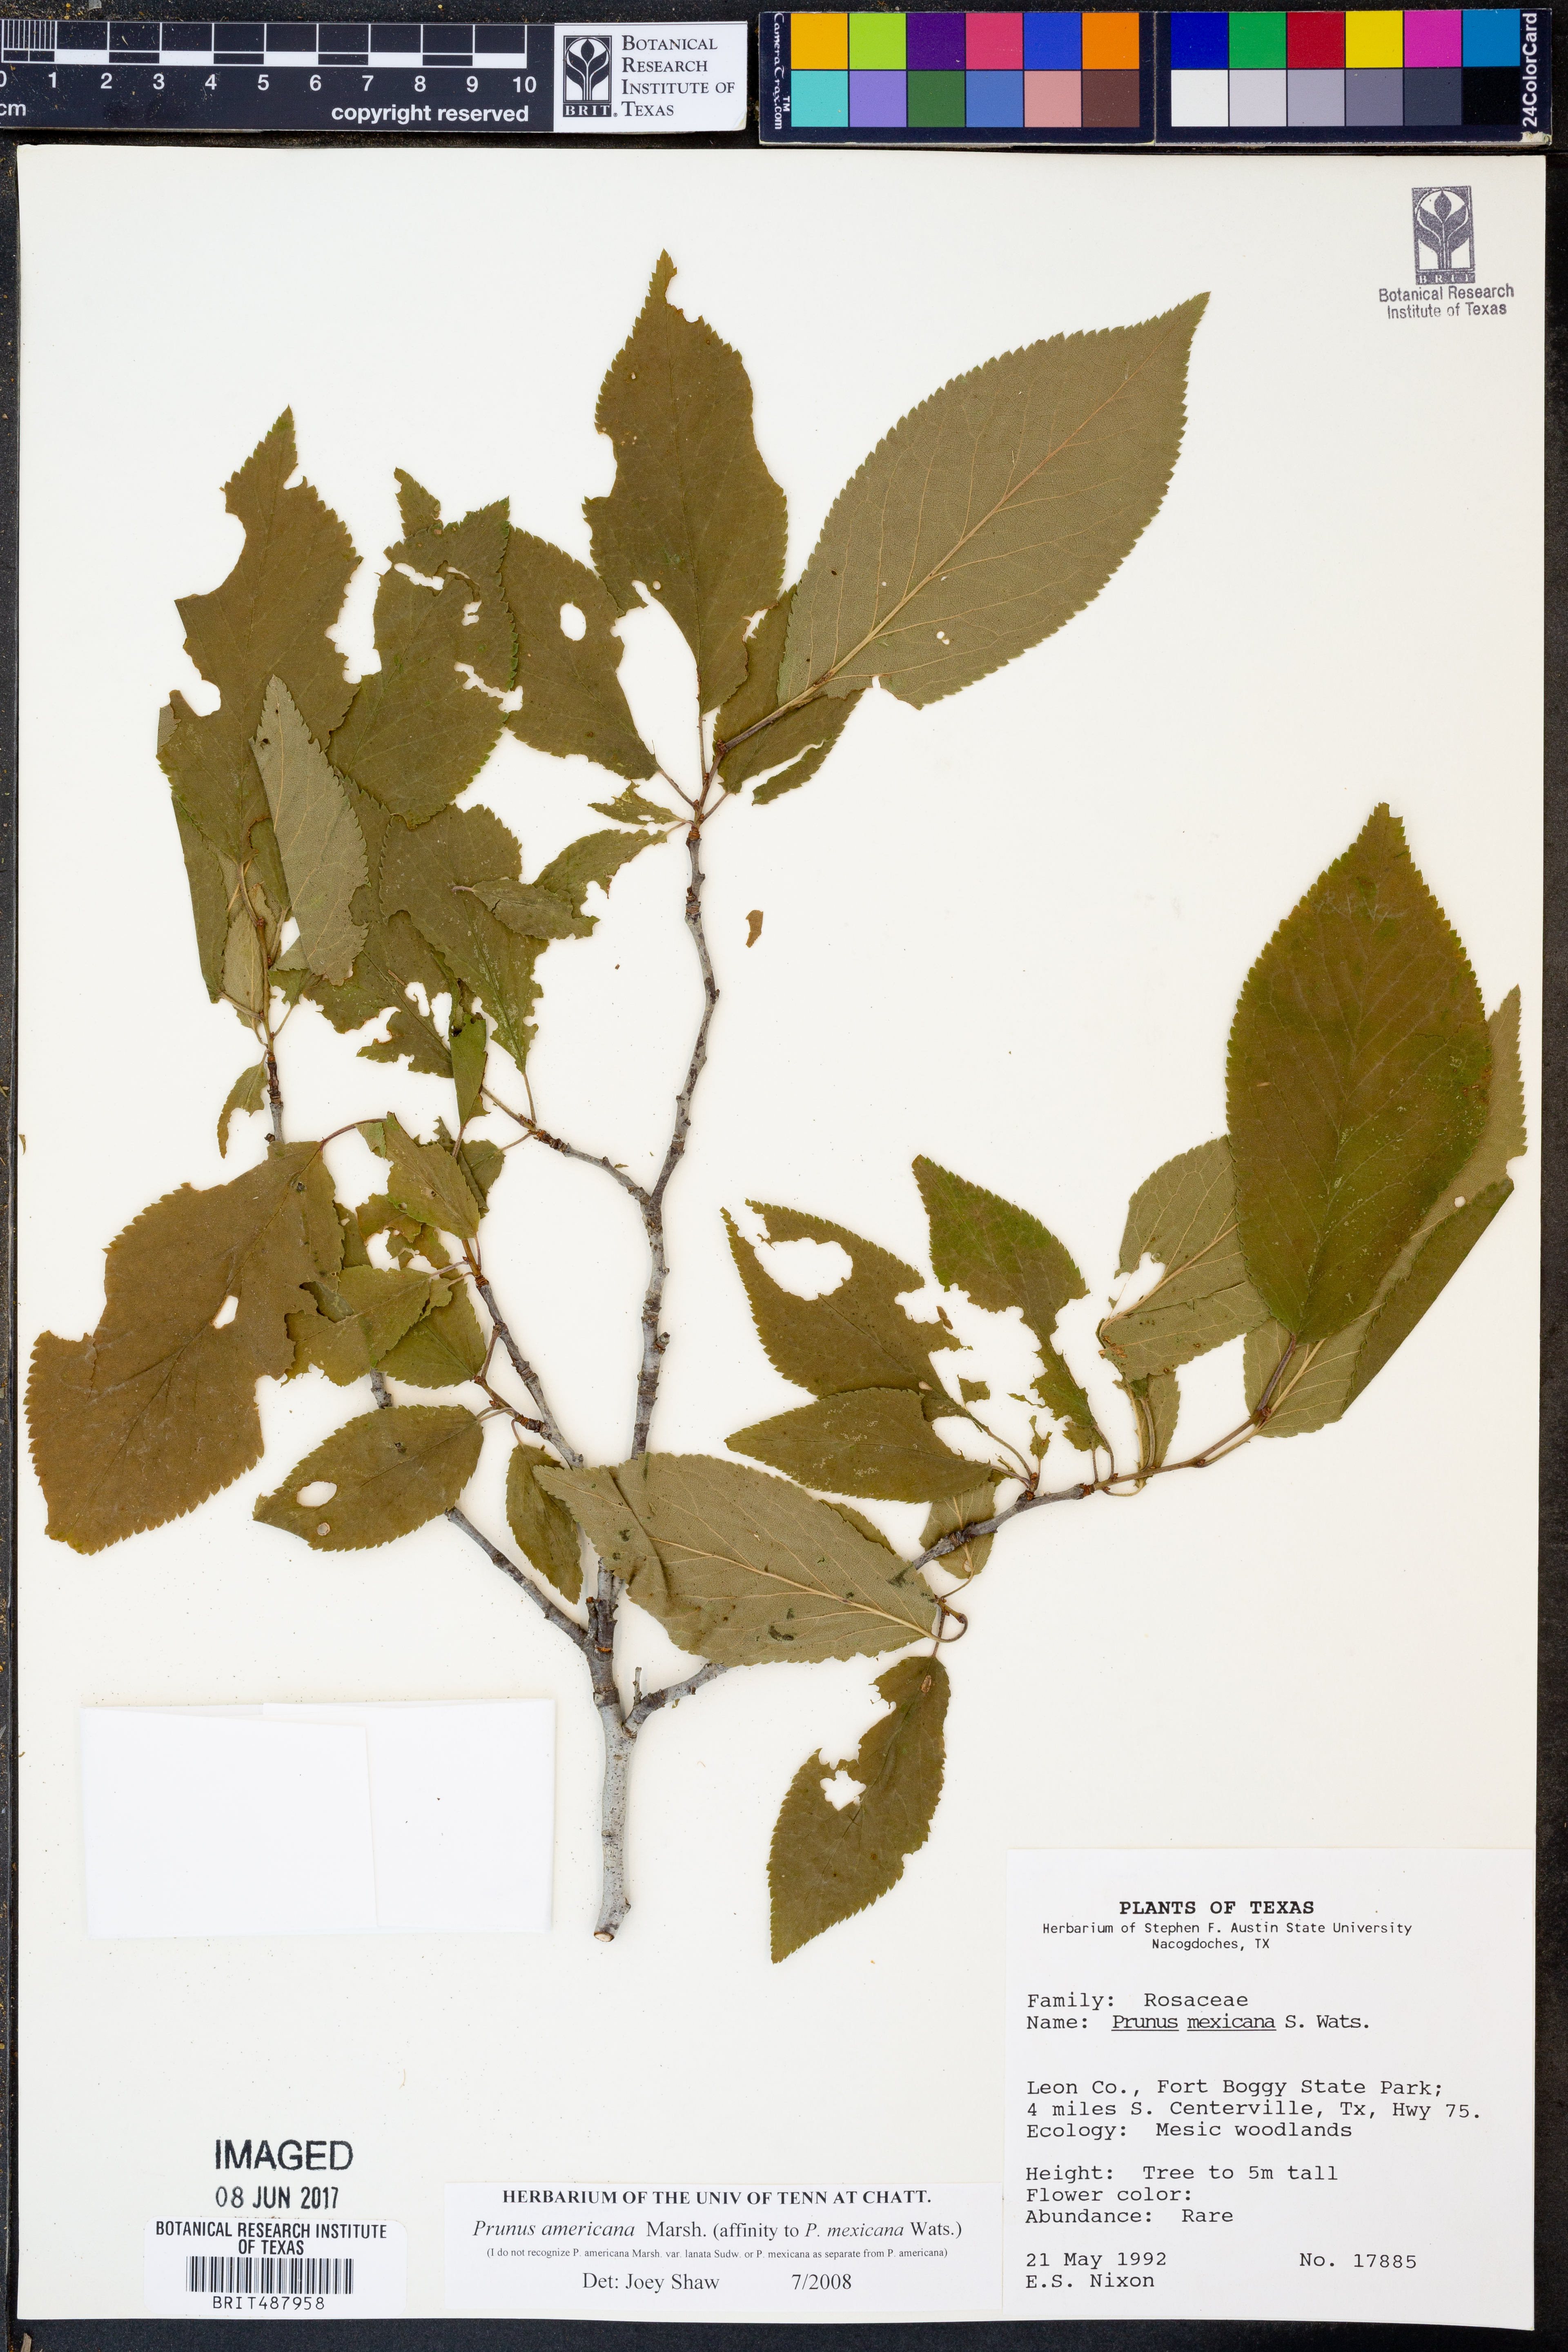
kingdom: Plantae
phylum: Tracheophyta
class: Magnoliopsida
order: Rosales
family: Rosaceae
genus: Prunus
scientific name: Prunus americana
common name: American plum
